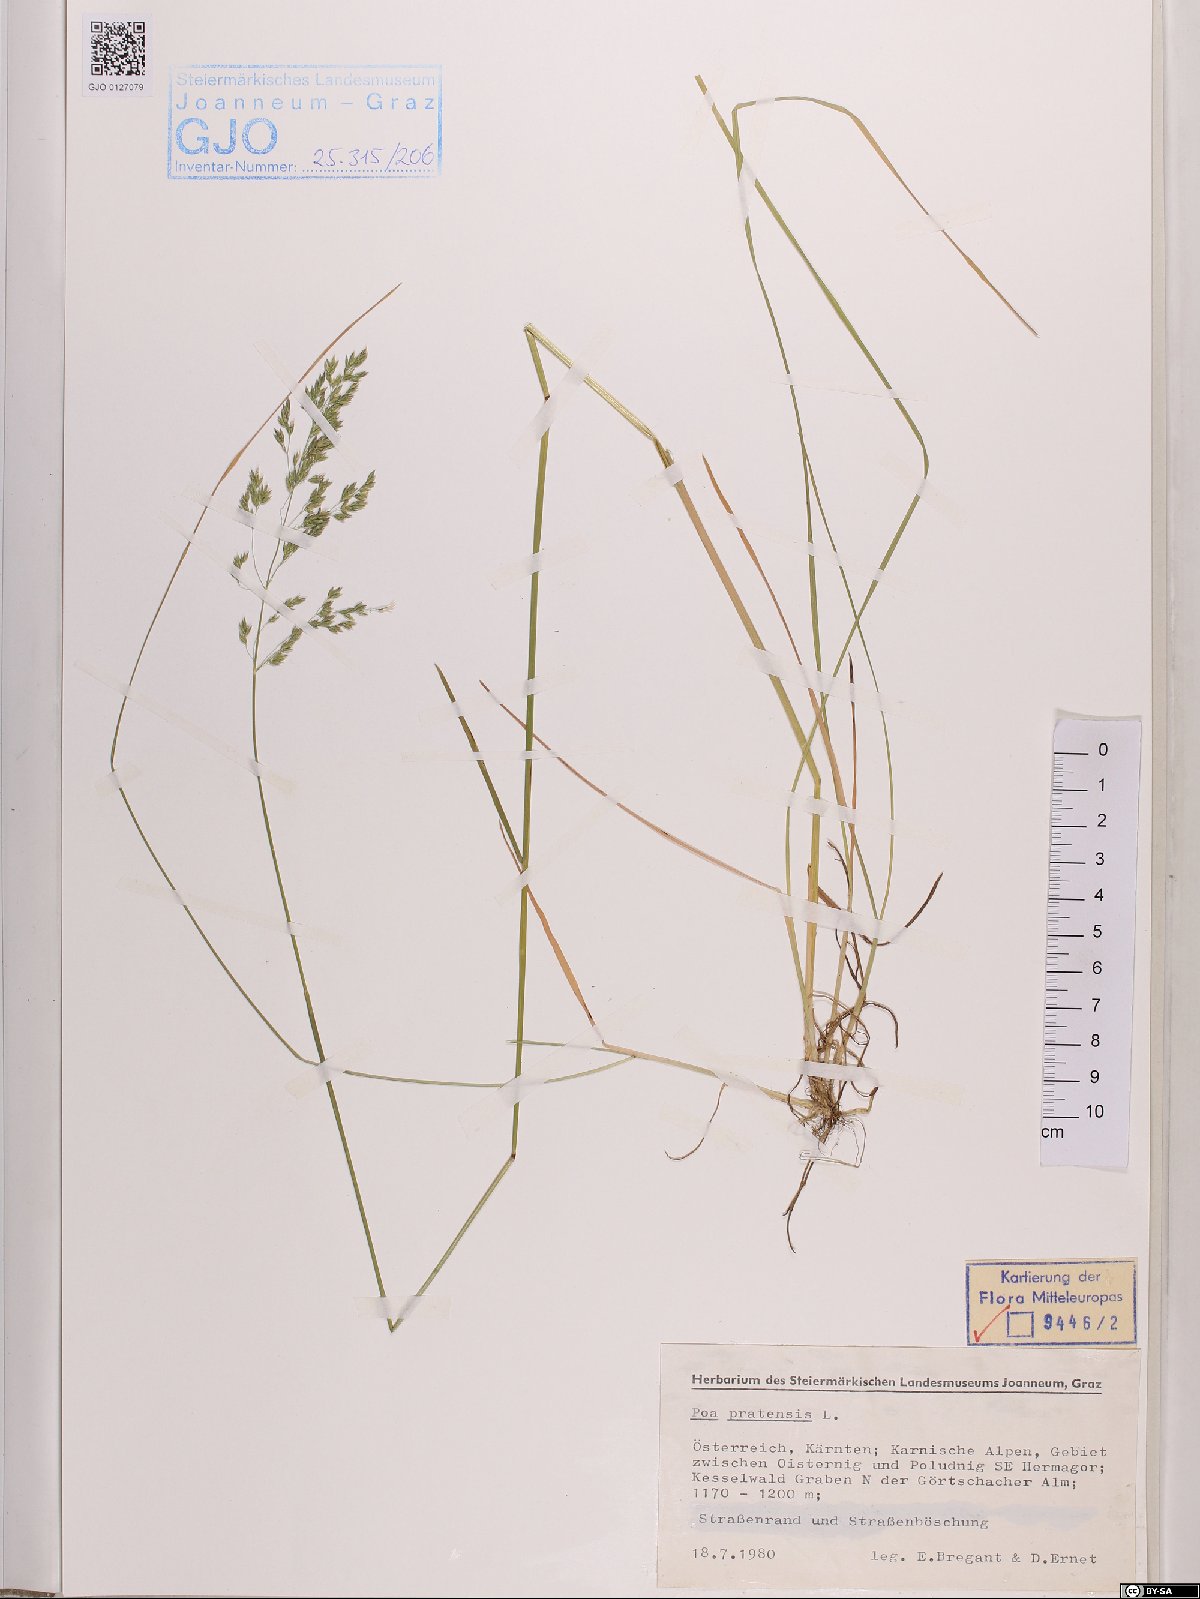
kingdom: Plantae
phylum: Tracheophyta
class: Liliopsida
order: Poales
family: Poaceae
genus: Poa
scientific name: Poa pratensis
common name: Kentucky bluegrass
